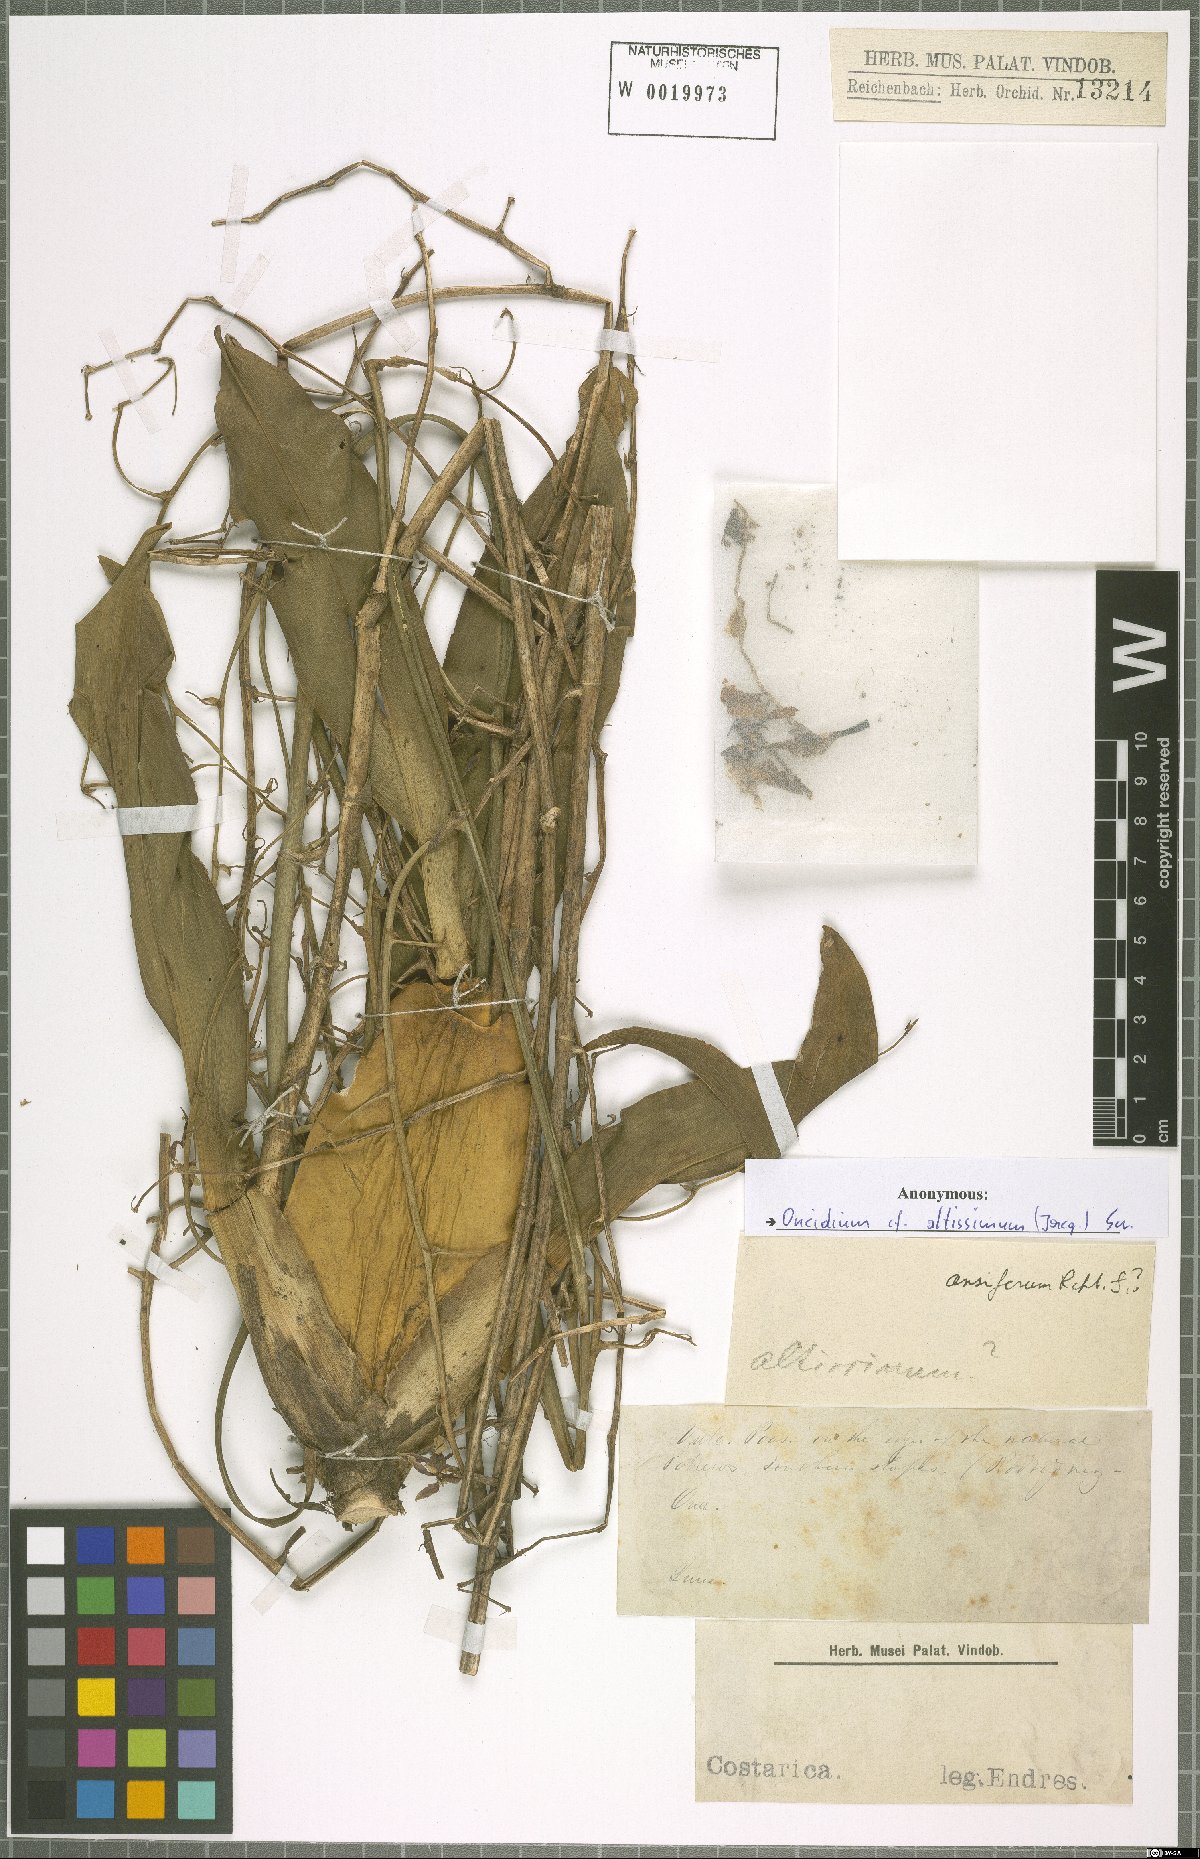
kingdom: Plantae
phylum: Tracheophyta
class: Liliopsida
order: Asparagales
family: Orchidaceae
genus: Oncidium
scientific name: Oncidium altissimum
